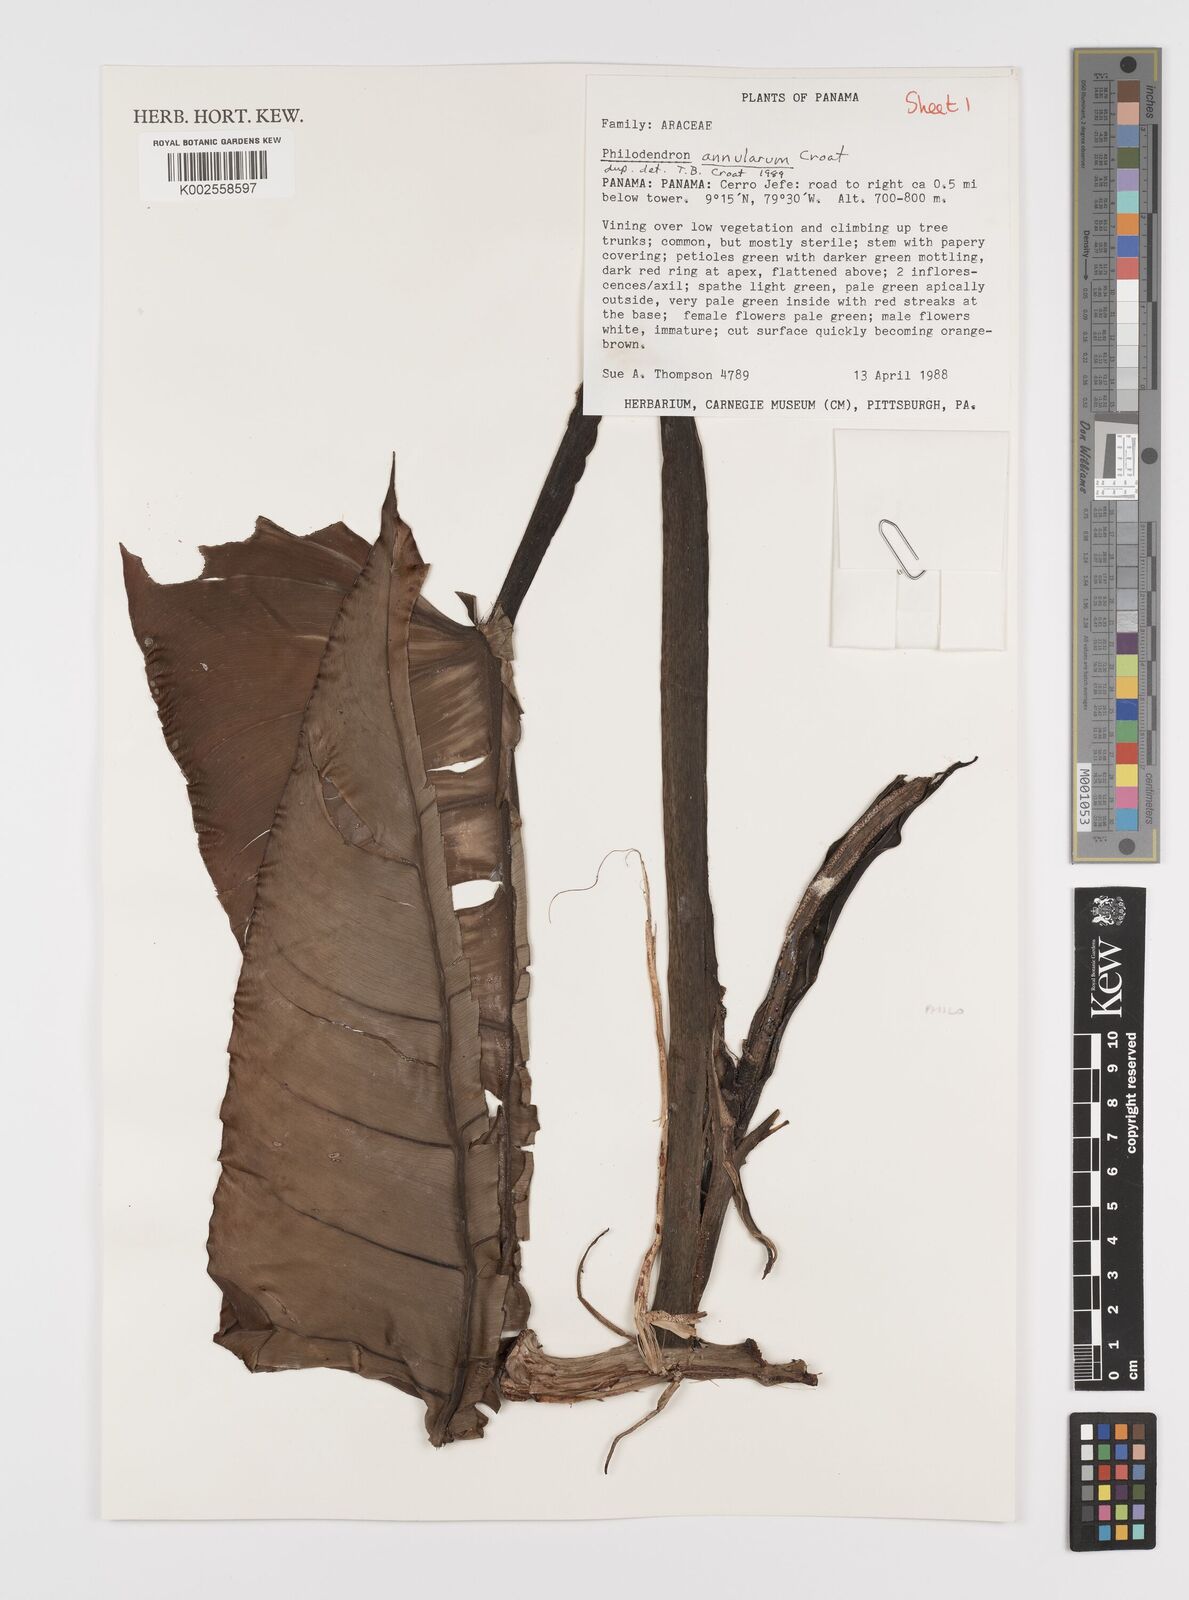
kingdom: Plantae
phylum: Tracheophyta
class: Liliopsida
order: Alismatales
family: Araceae
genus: Philodendron
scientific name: Philodendron annulatum
